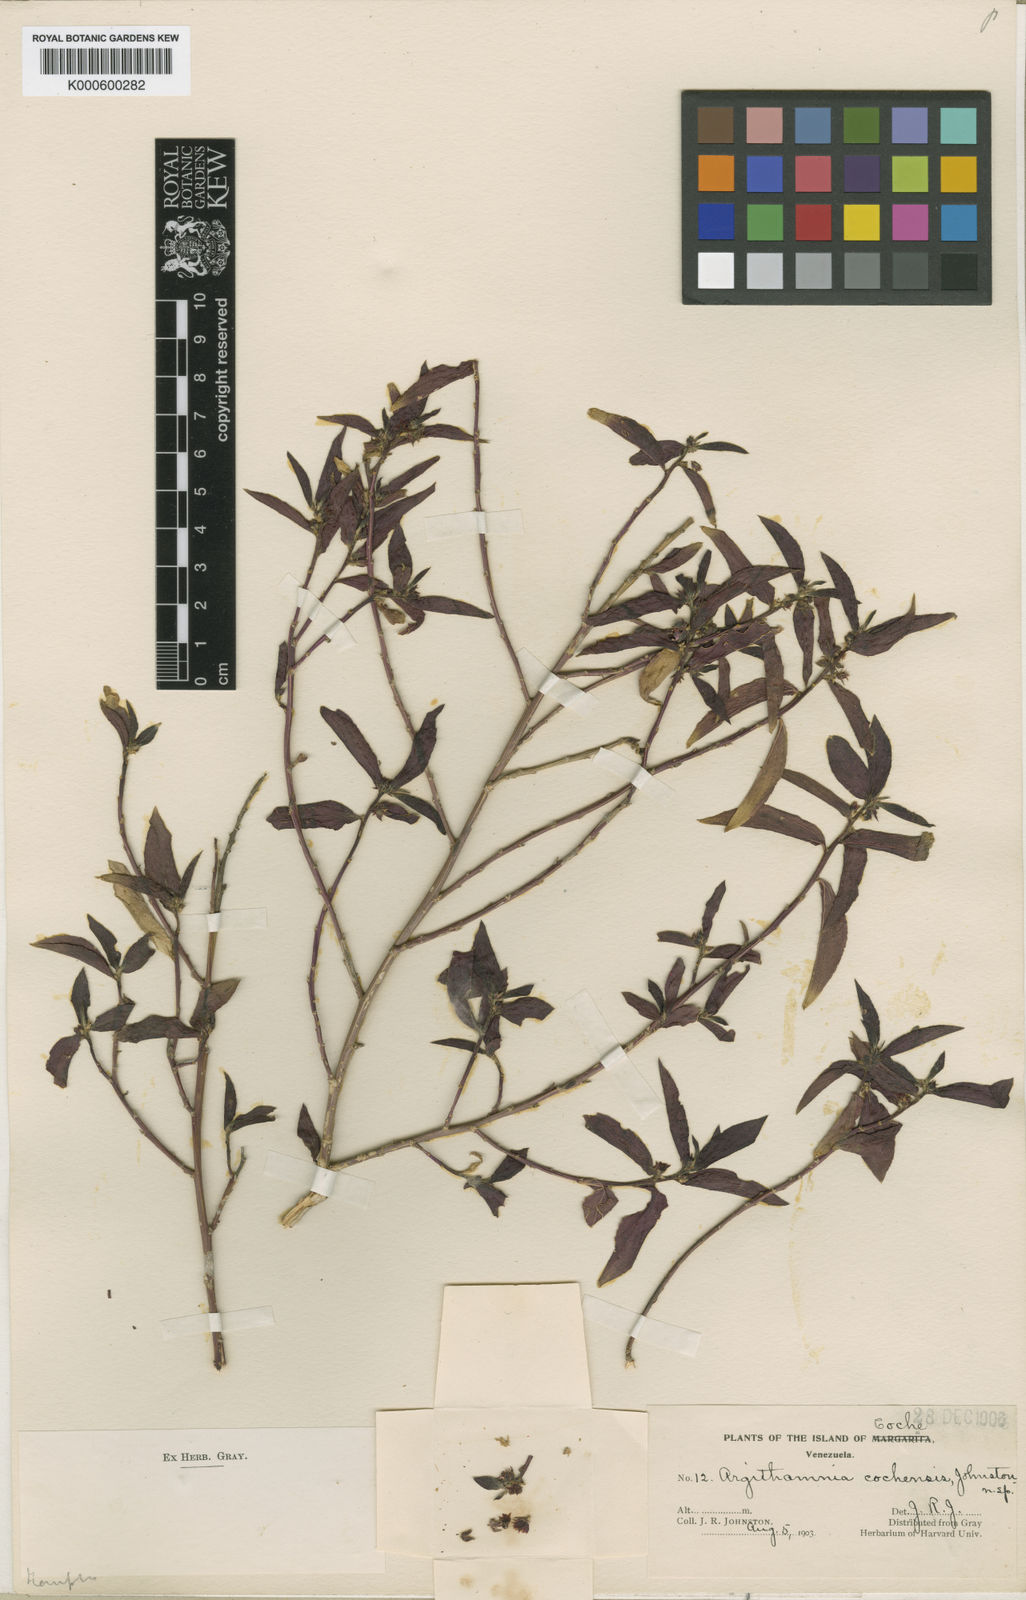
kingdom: Plantae
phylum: Tracheophyta
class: Magnoliopsida
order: Malpighiales
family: Euphorbiaceae
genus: Ditaxis
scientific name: Ditaxis
